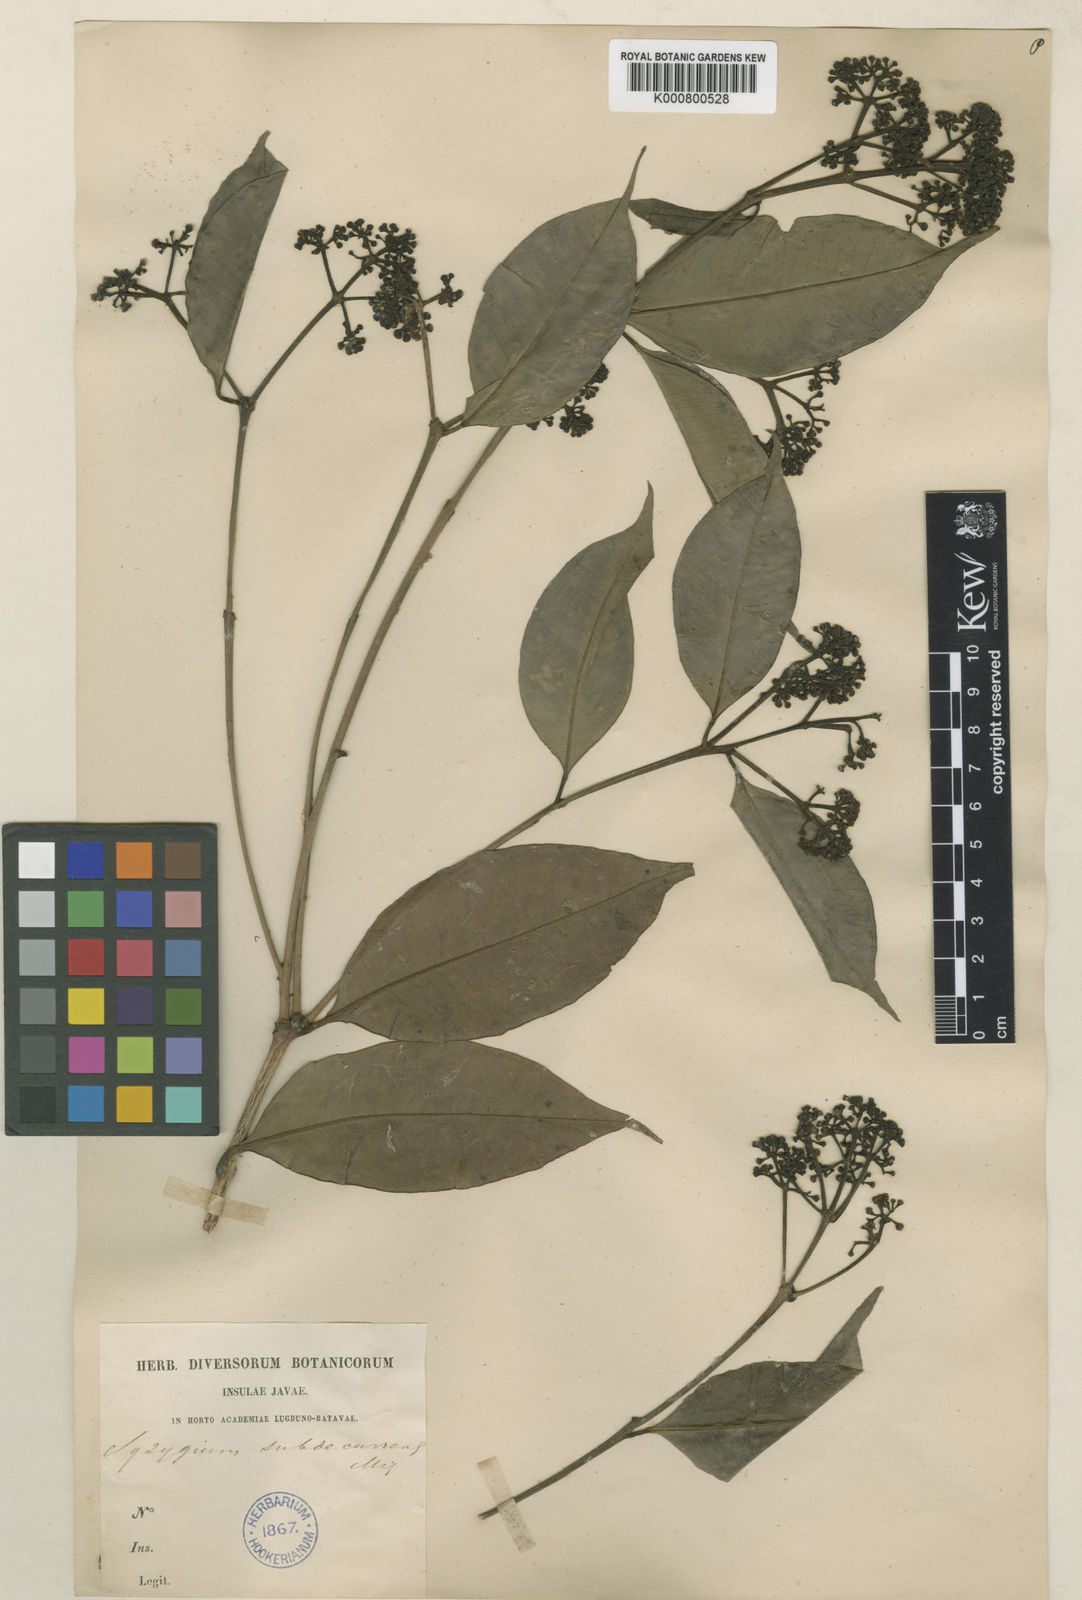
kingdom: Plantae
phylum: Tracheophyta
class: Magnoliopsida
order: Myrtales
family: Myrtaceae
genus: Syzygium
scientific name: Syzygium acuminatissimum
